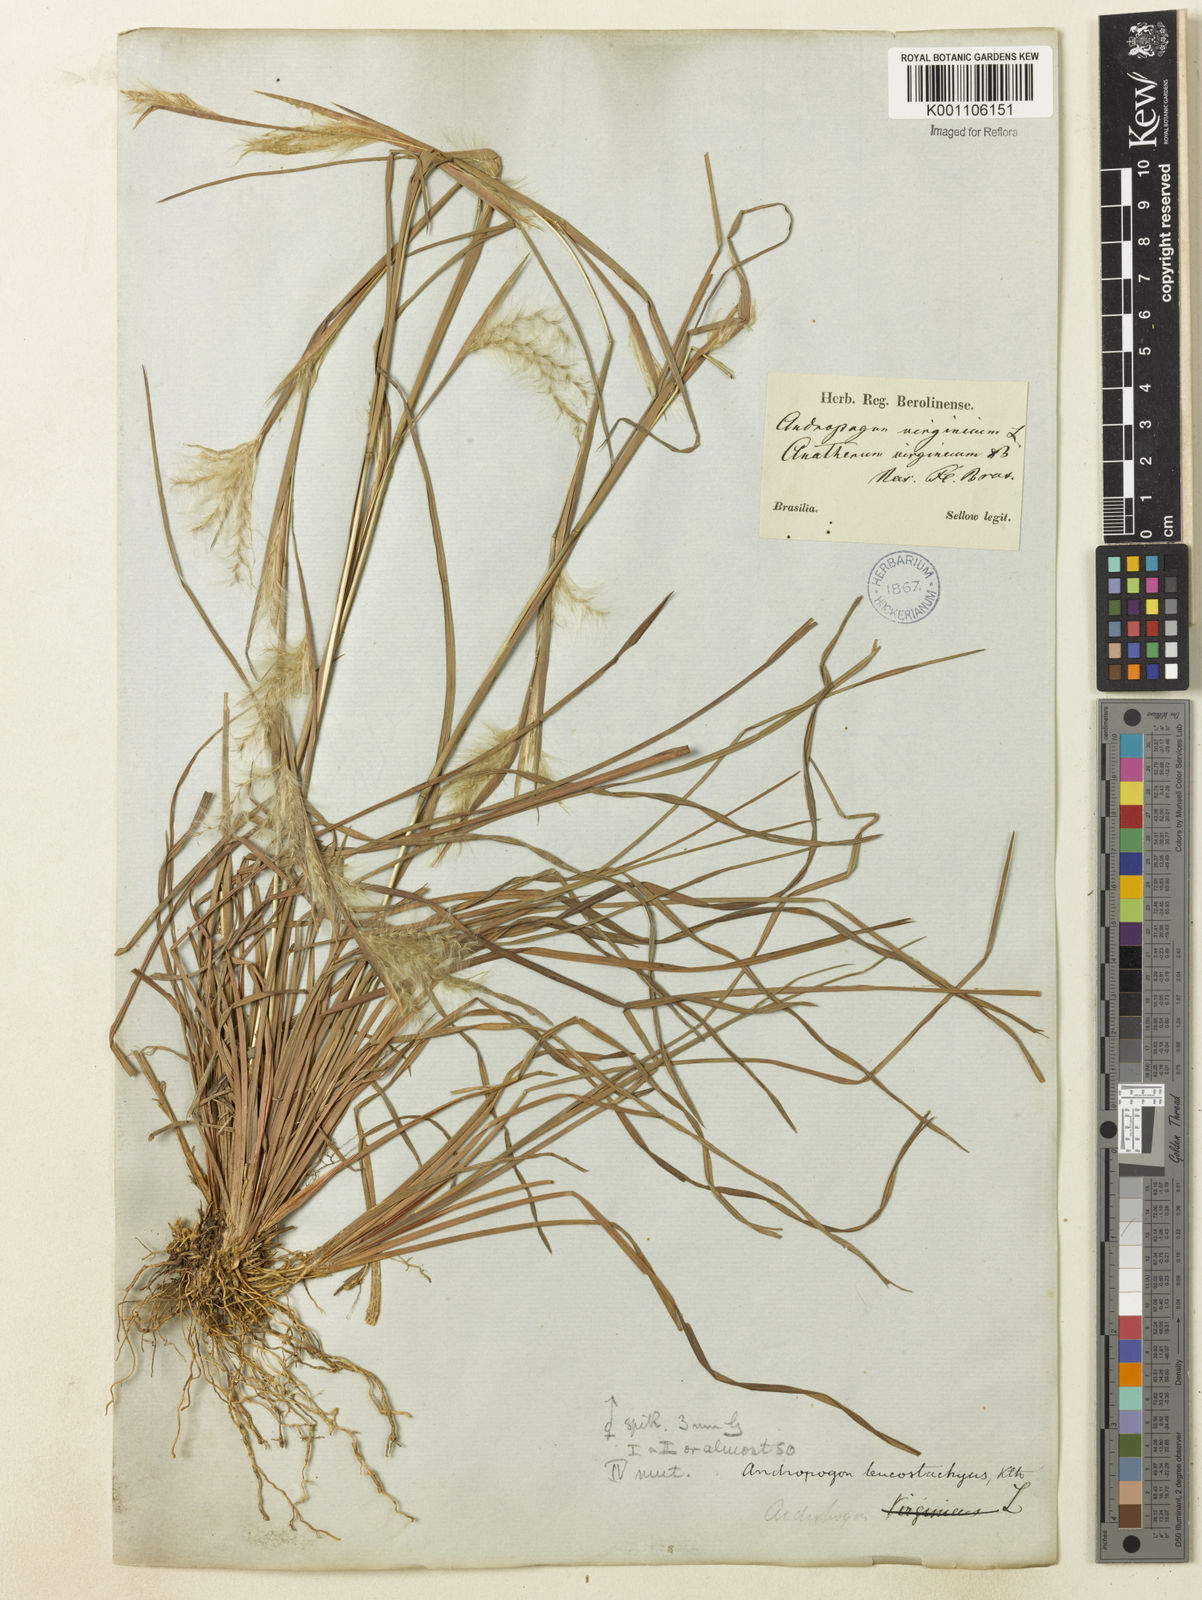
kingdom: Plantae
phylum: Tracheophyta
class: Liliopsida
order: Poales
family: Poaceae
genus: Andropogon
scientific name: Andropogon leucostachyus
